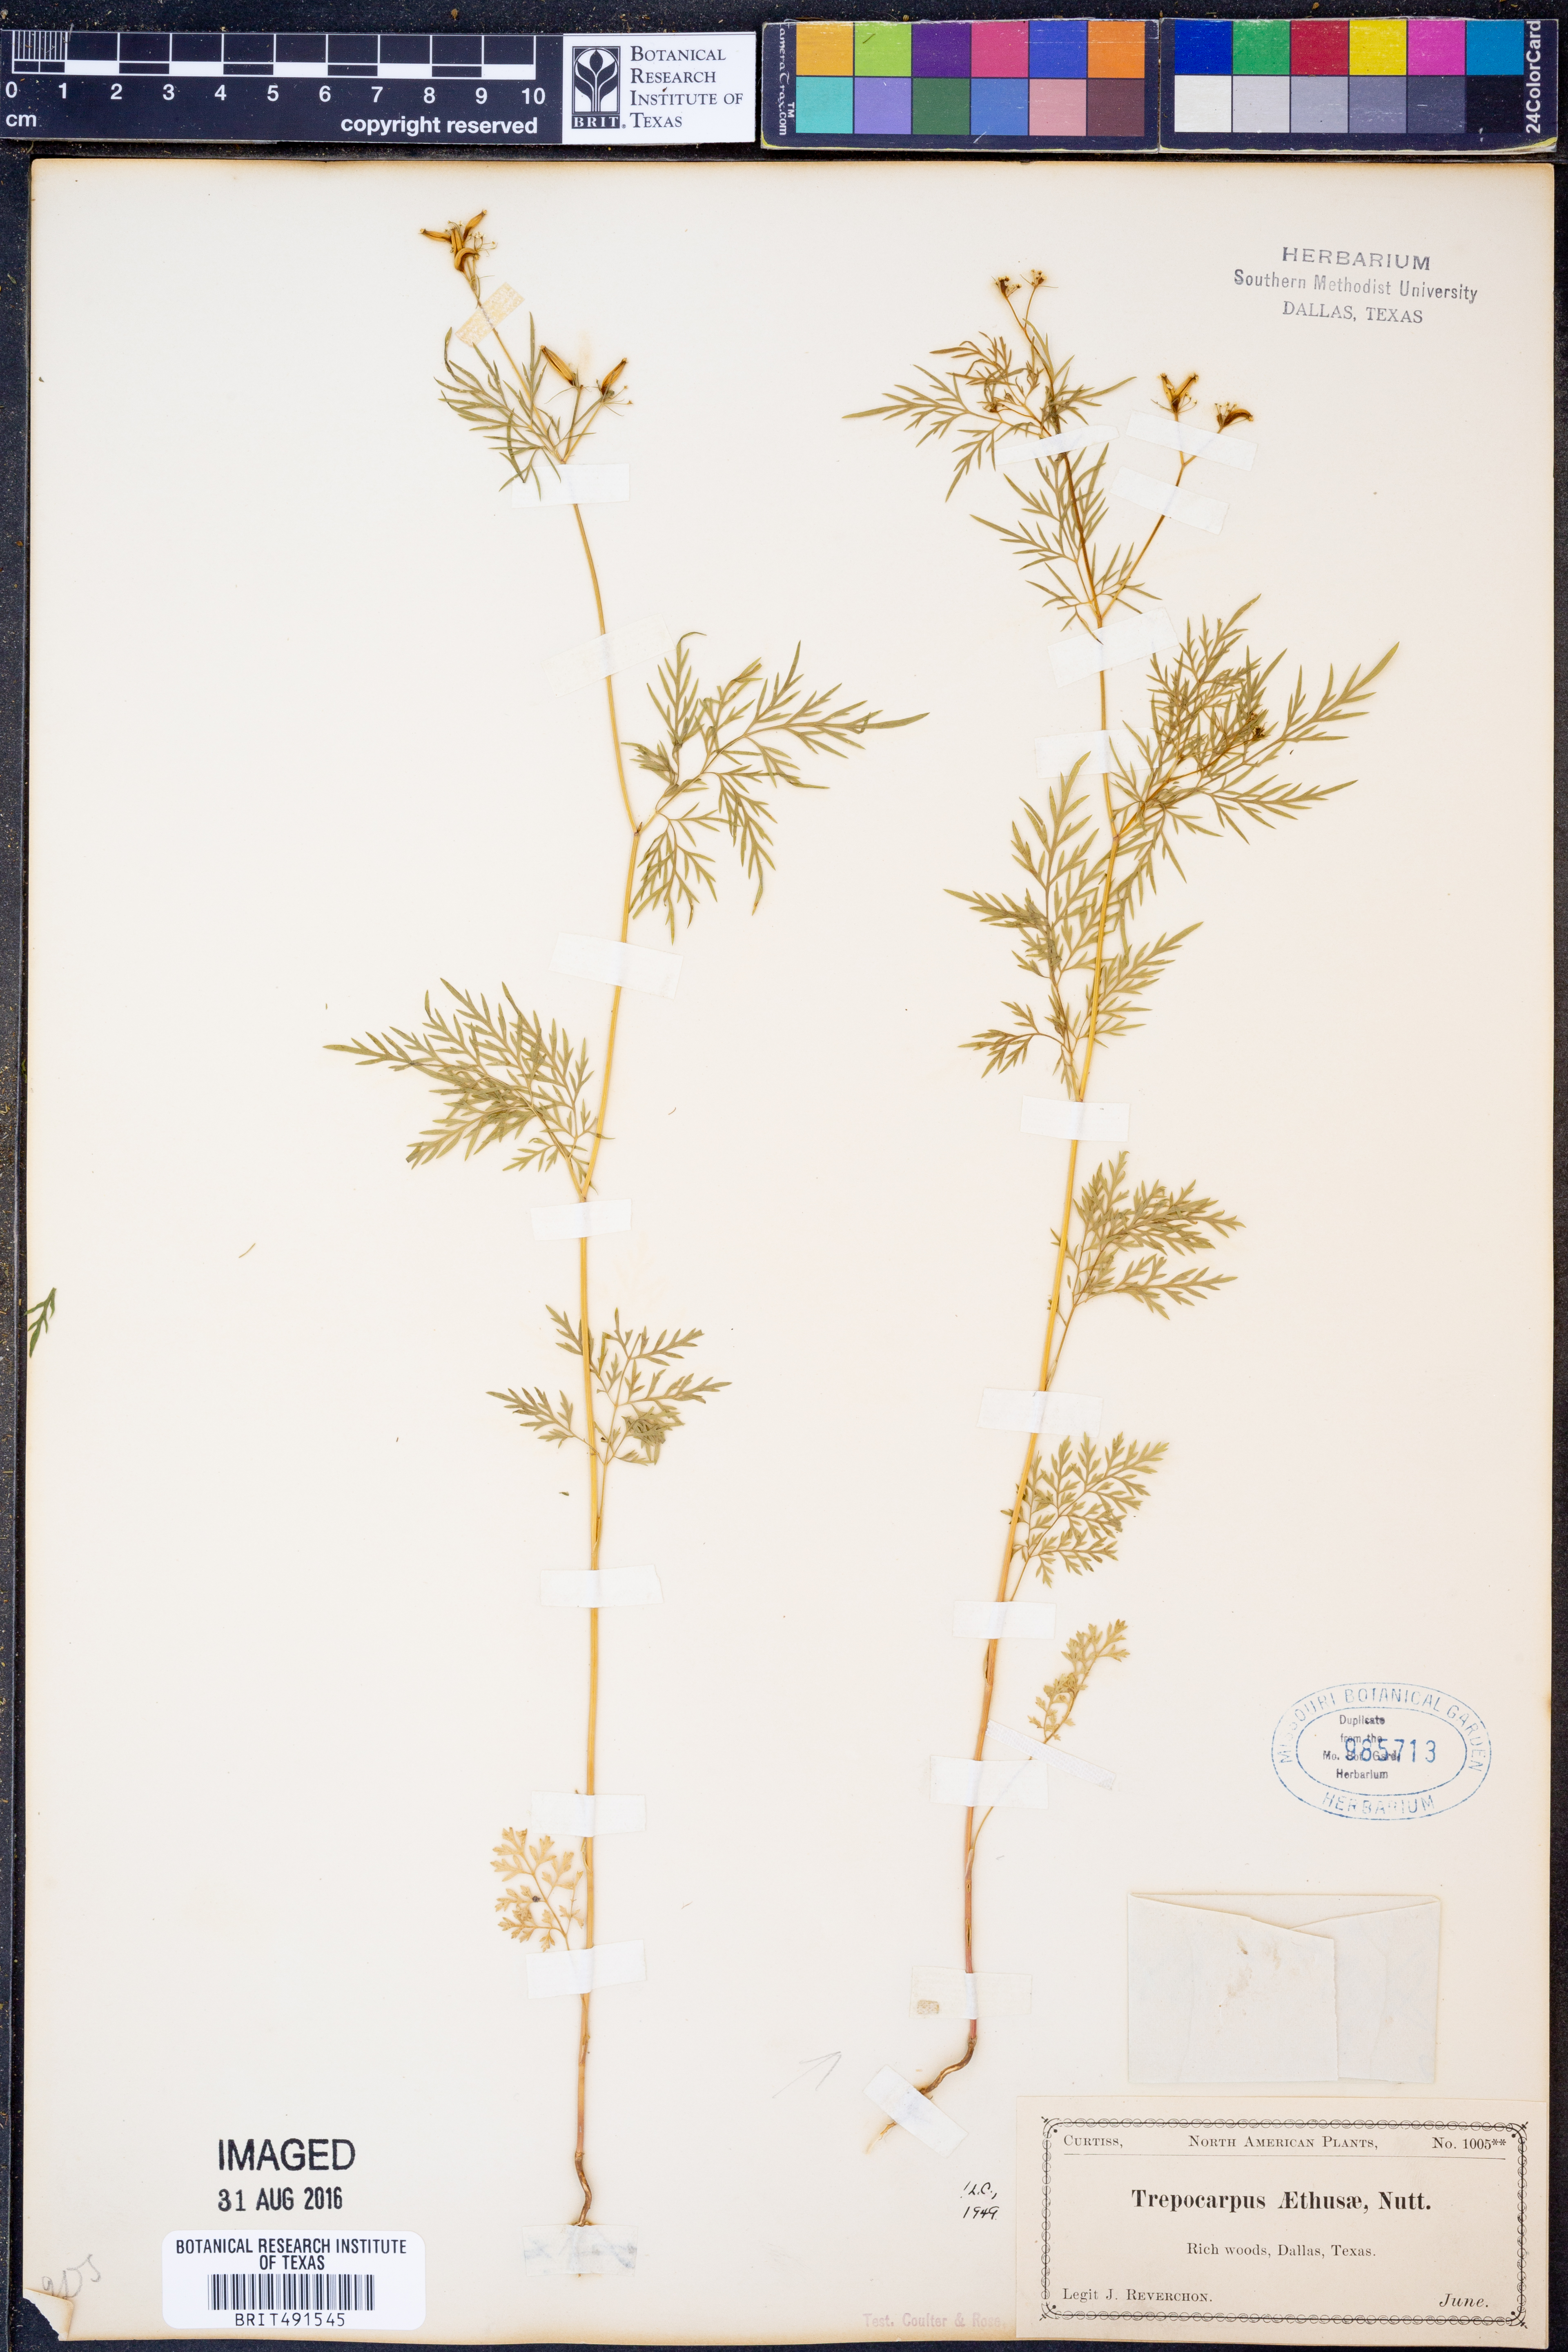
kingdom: Plantae
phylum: Tracheophyta
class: Magnoliopsida
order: Apiales
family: Apiaceae
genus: Trepocarpus
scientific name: Trepocarpus aethusae
